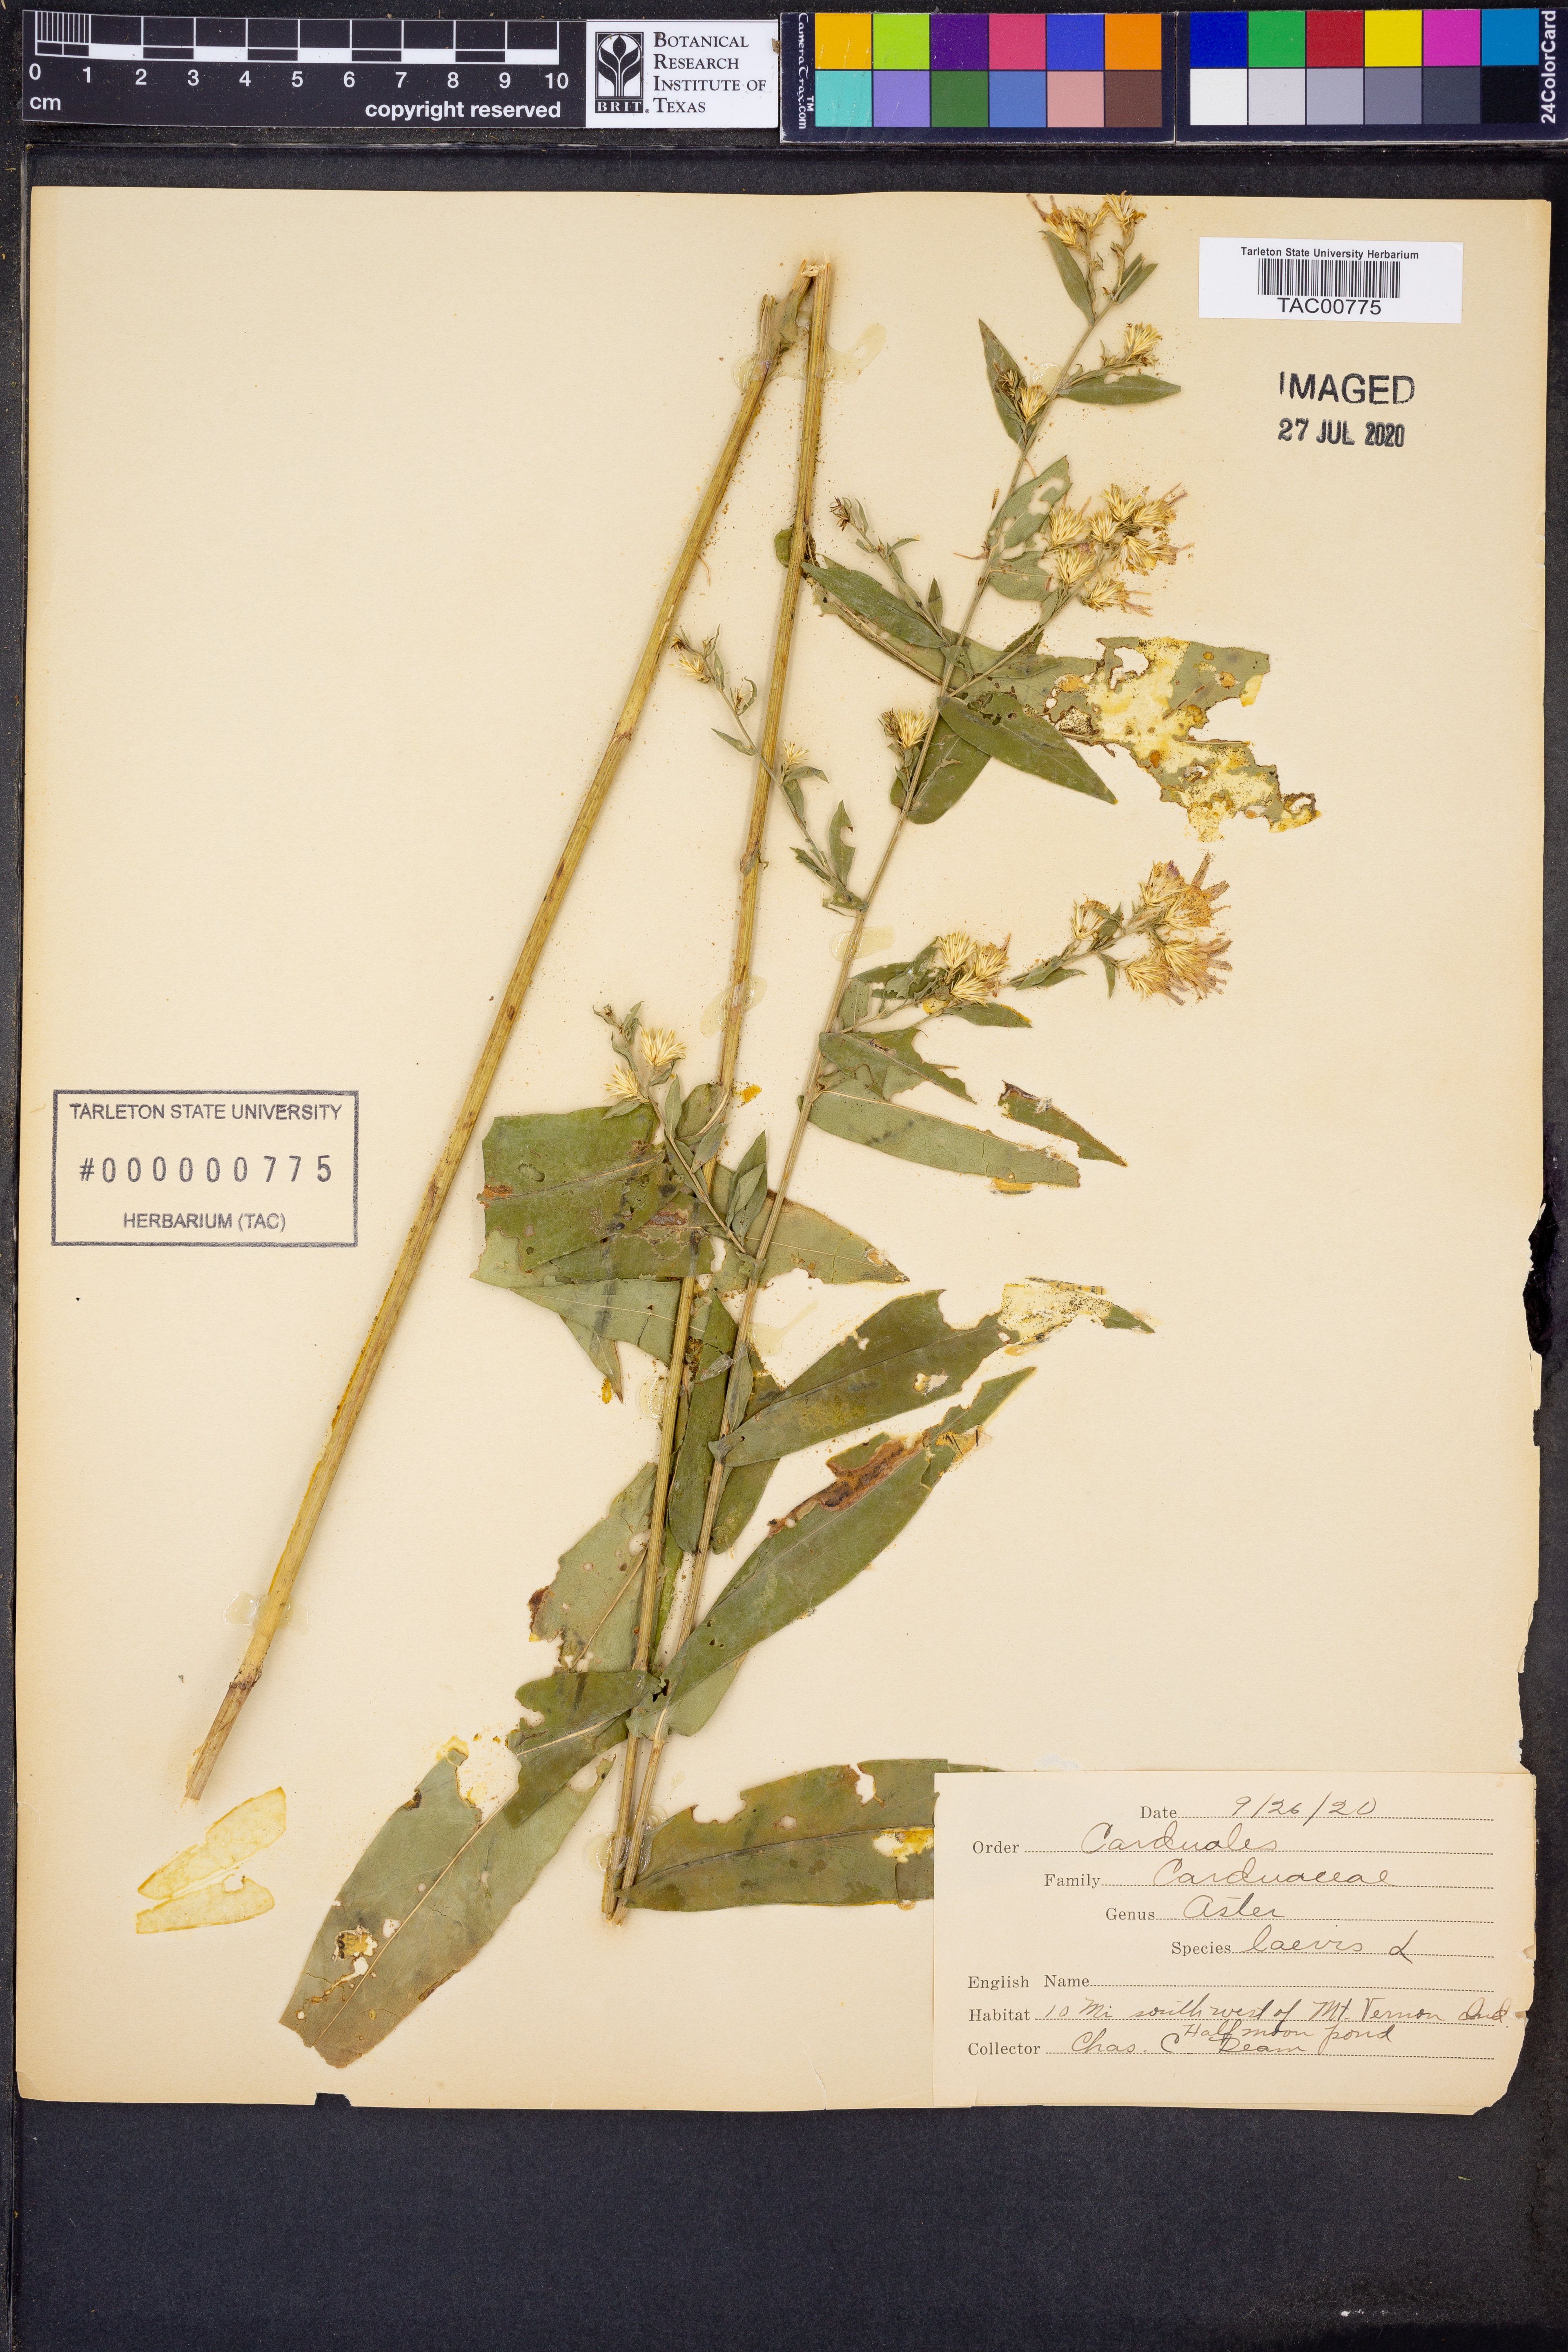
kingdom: Plantae
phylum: Tracheophyta
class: Magnoliopsida
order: Asterales
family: Asteraceae
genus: Symphyotrichum
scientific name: Symphyotrichum laeve
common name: Glaucous aster
